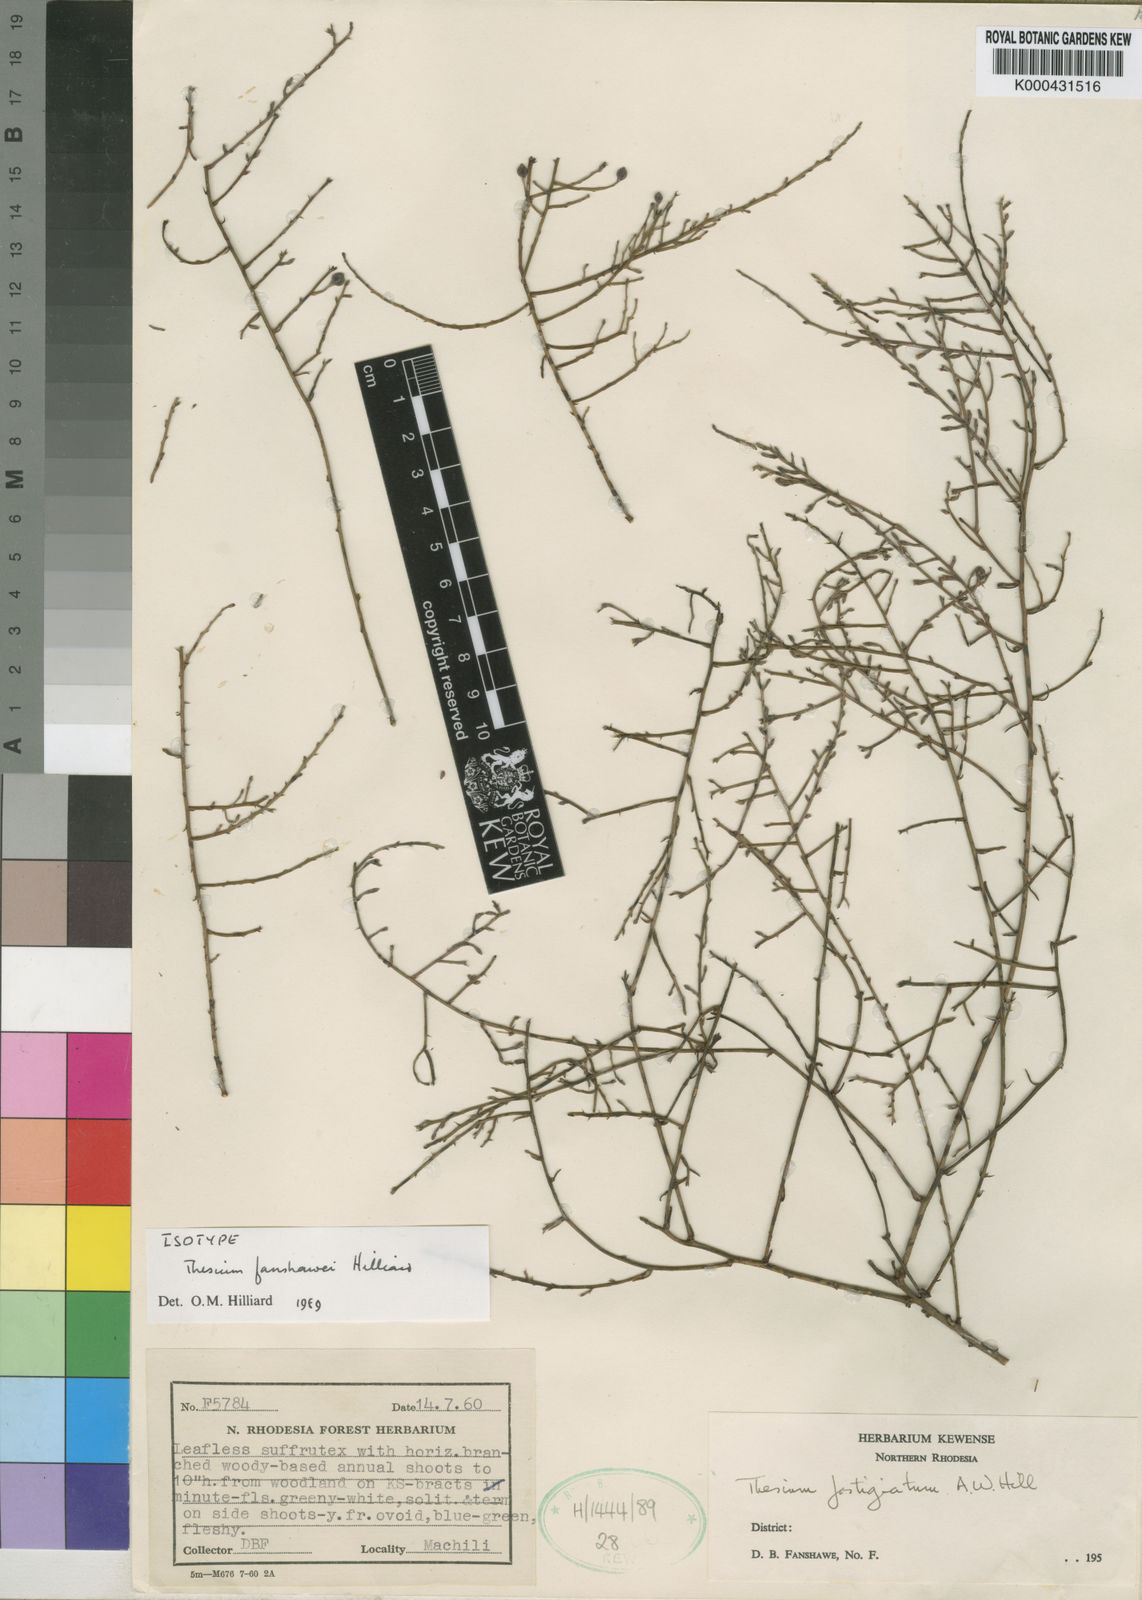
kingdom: Plantae
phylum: Tracheophyta
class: Magnoliopsida
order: Santalales
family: Thesiaceae
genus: Thesium
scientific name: Thesium fanshawei
